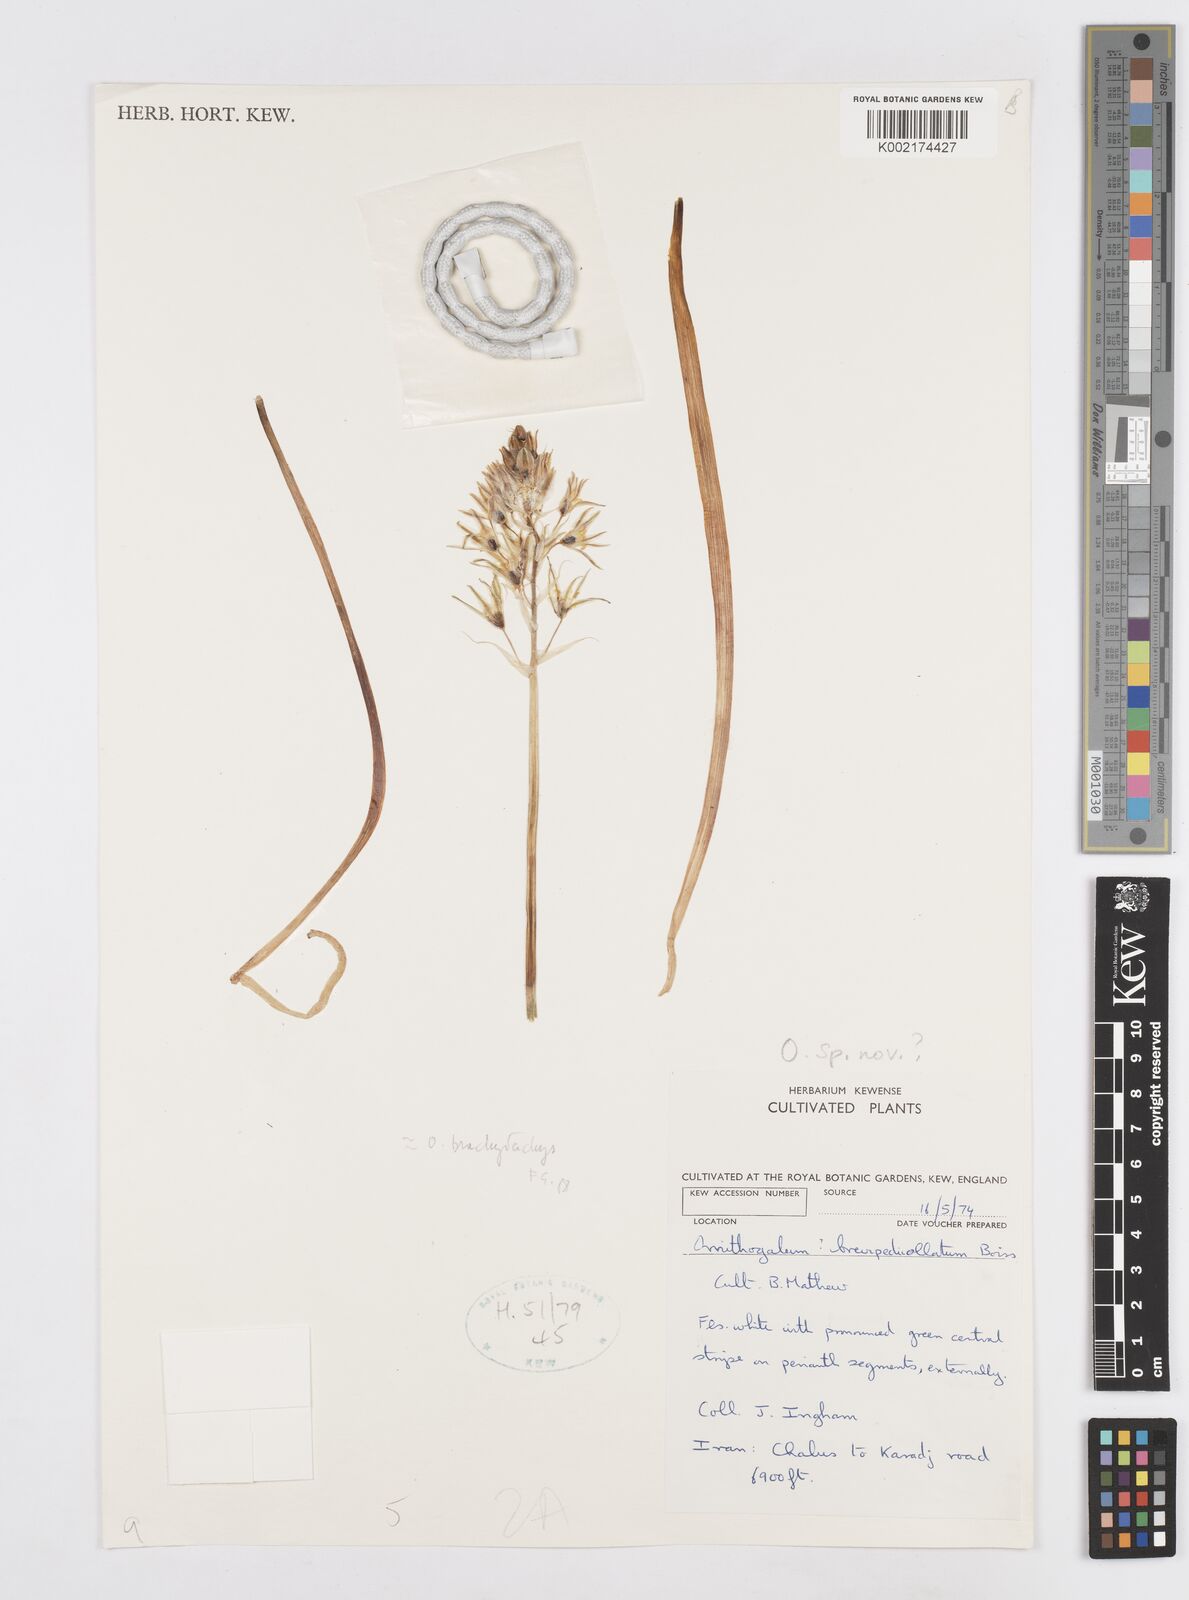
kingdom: Plantae
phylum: Tracheophyta
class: Liliopsida
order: Asparagales
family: Asparagaceae
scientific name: Asparagaceae
